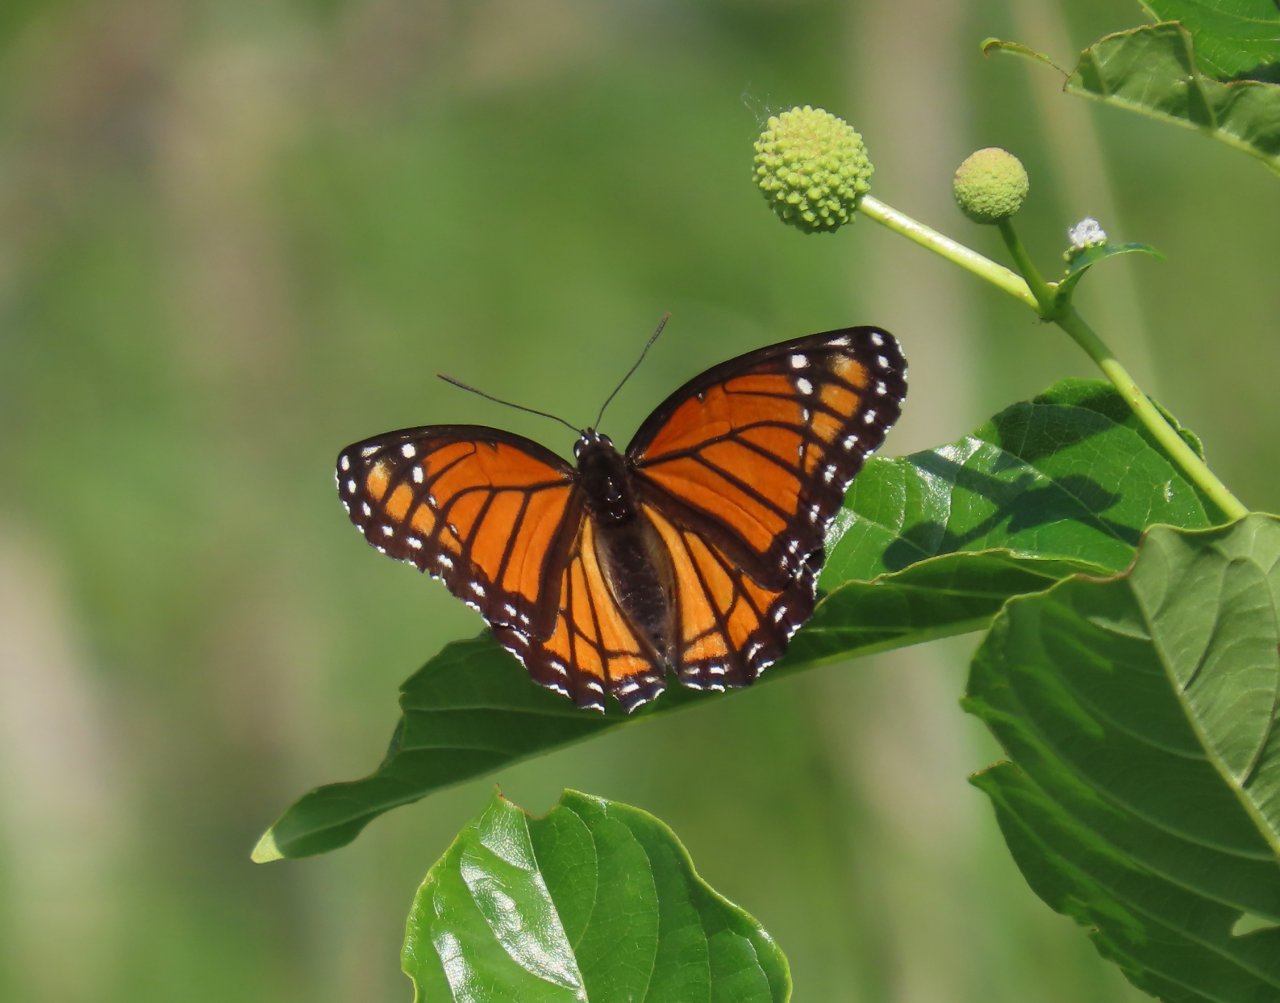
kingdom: Animalia
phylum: Arthropoda
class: Insecta
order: Lepidoptera
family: Nymphalidae
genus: Limenitis
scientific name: Limenitis archippus
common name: Viceroy
